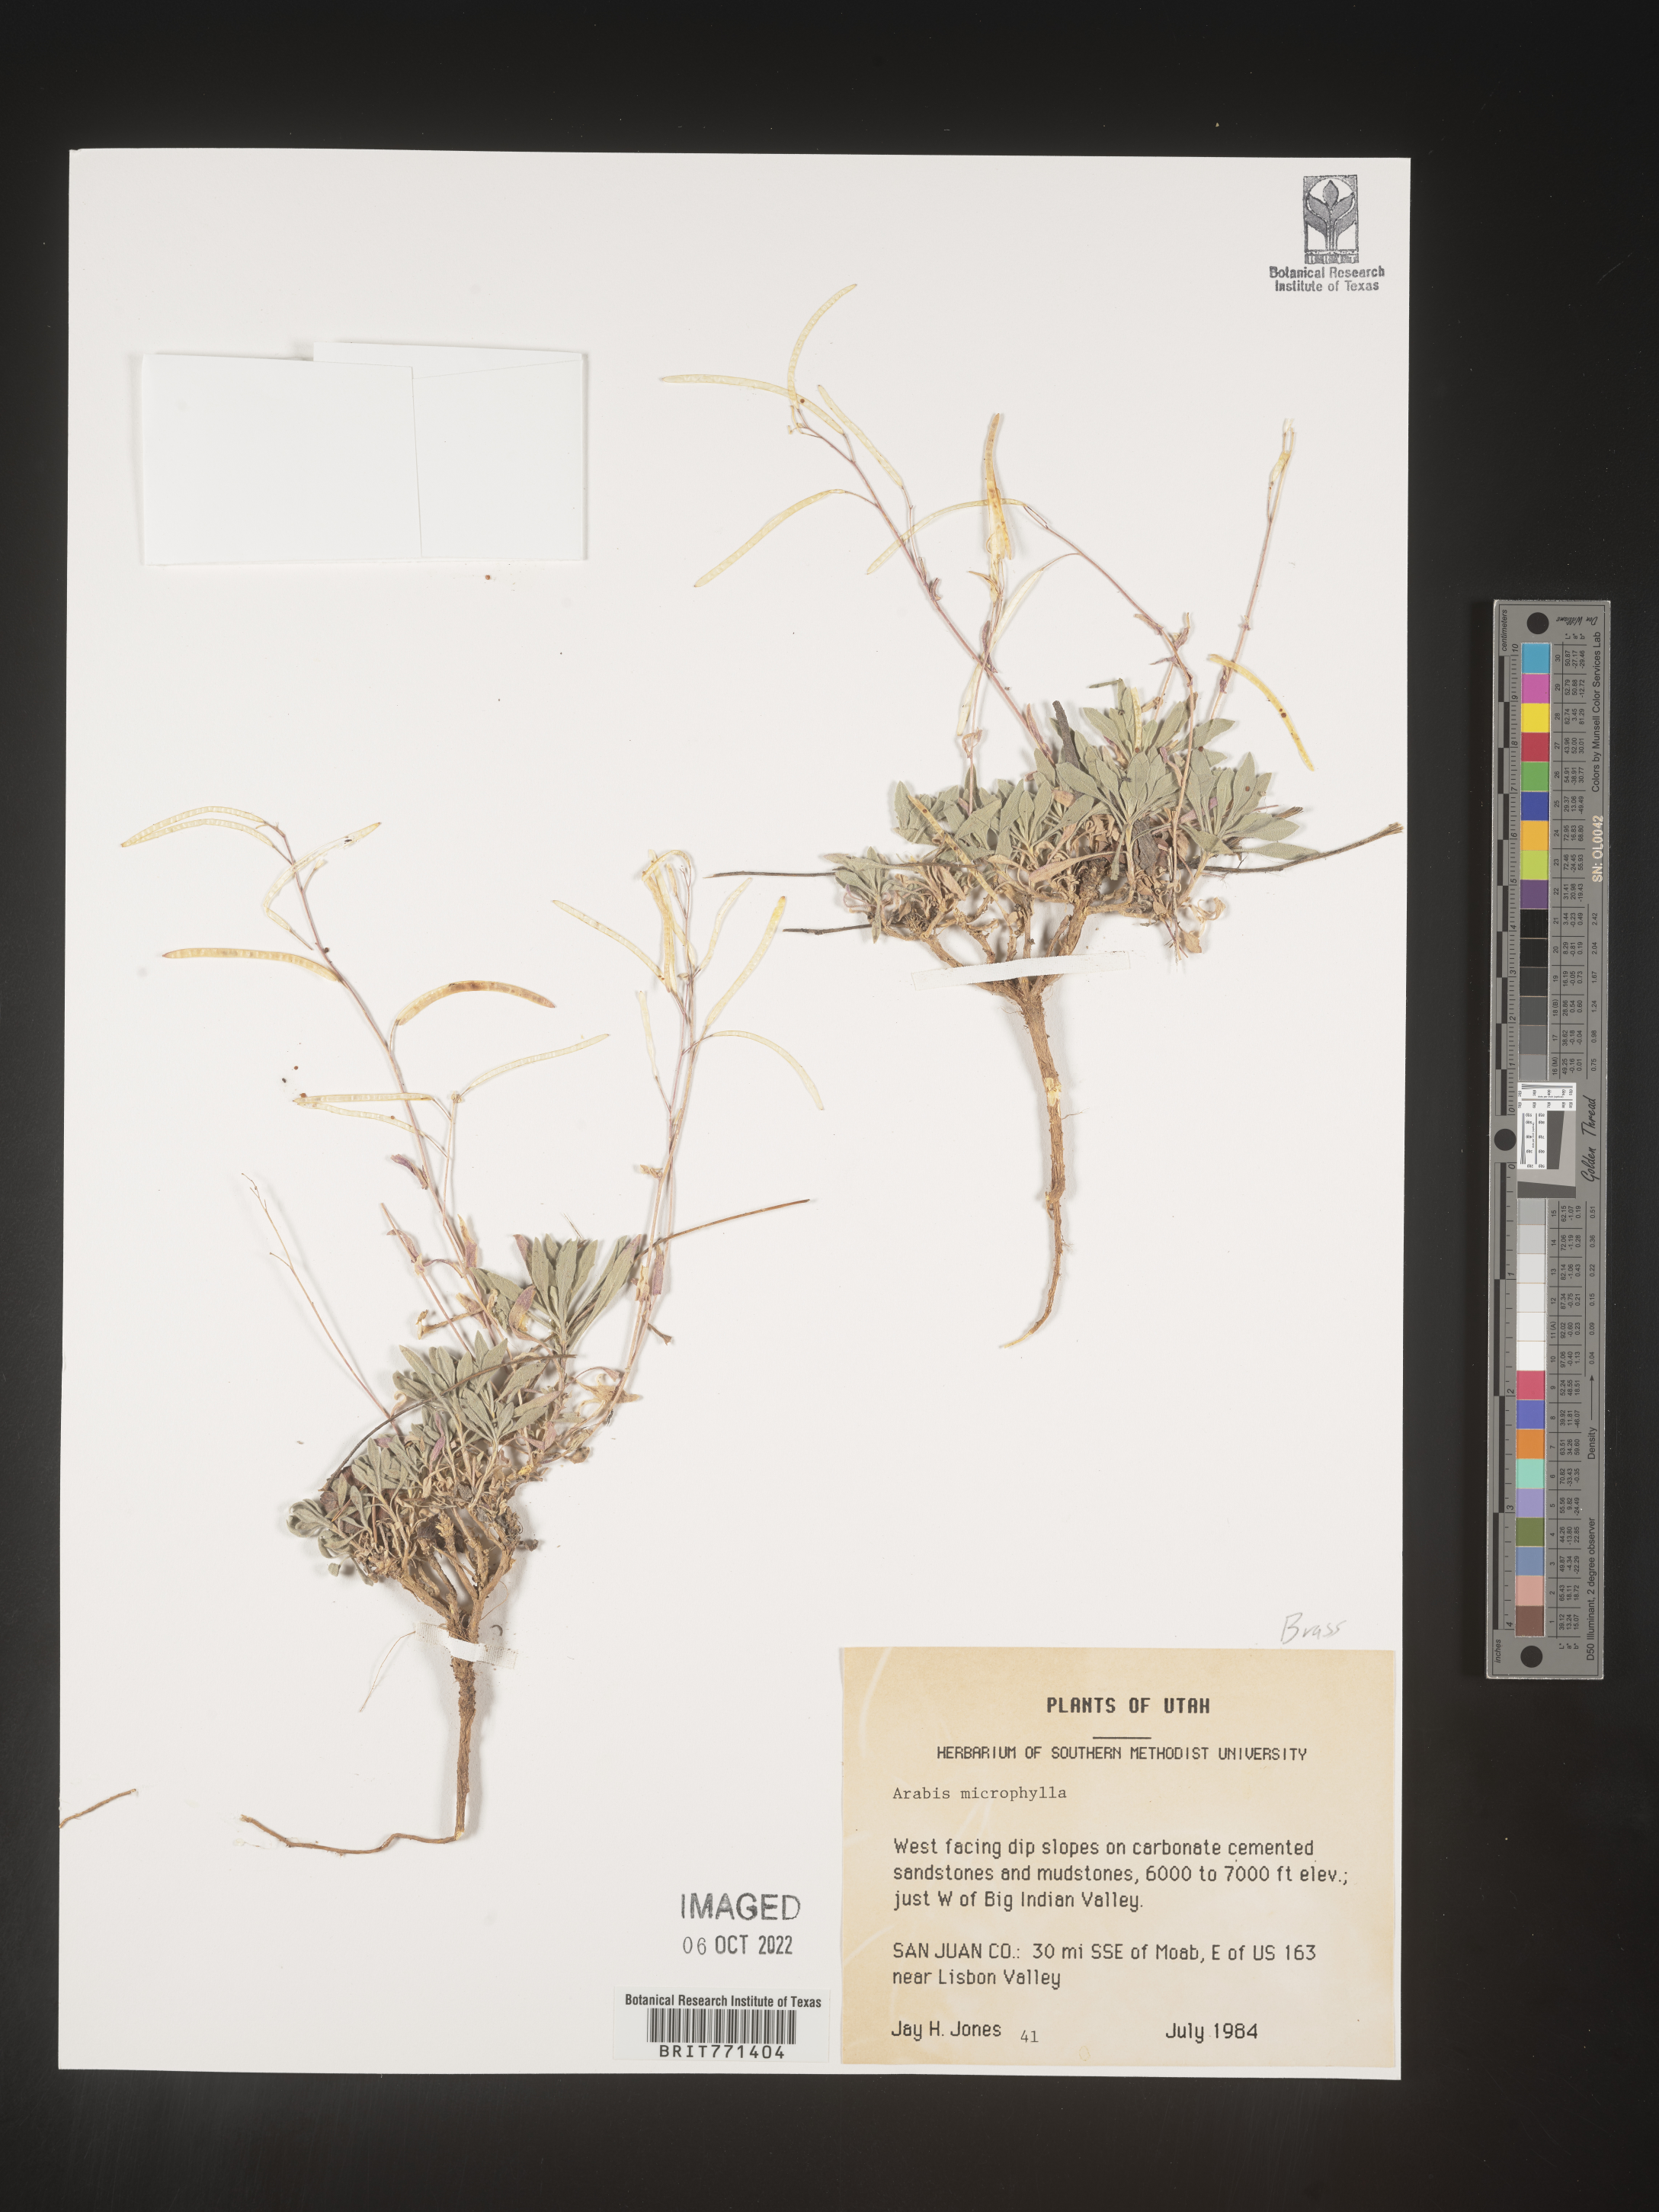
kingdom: Plantae
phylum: Tracheophyta
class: Magnoliopsida
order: Brassicales
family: Brassicaceae
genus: Arabis
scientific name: Arabis
